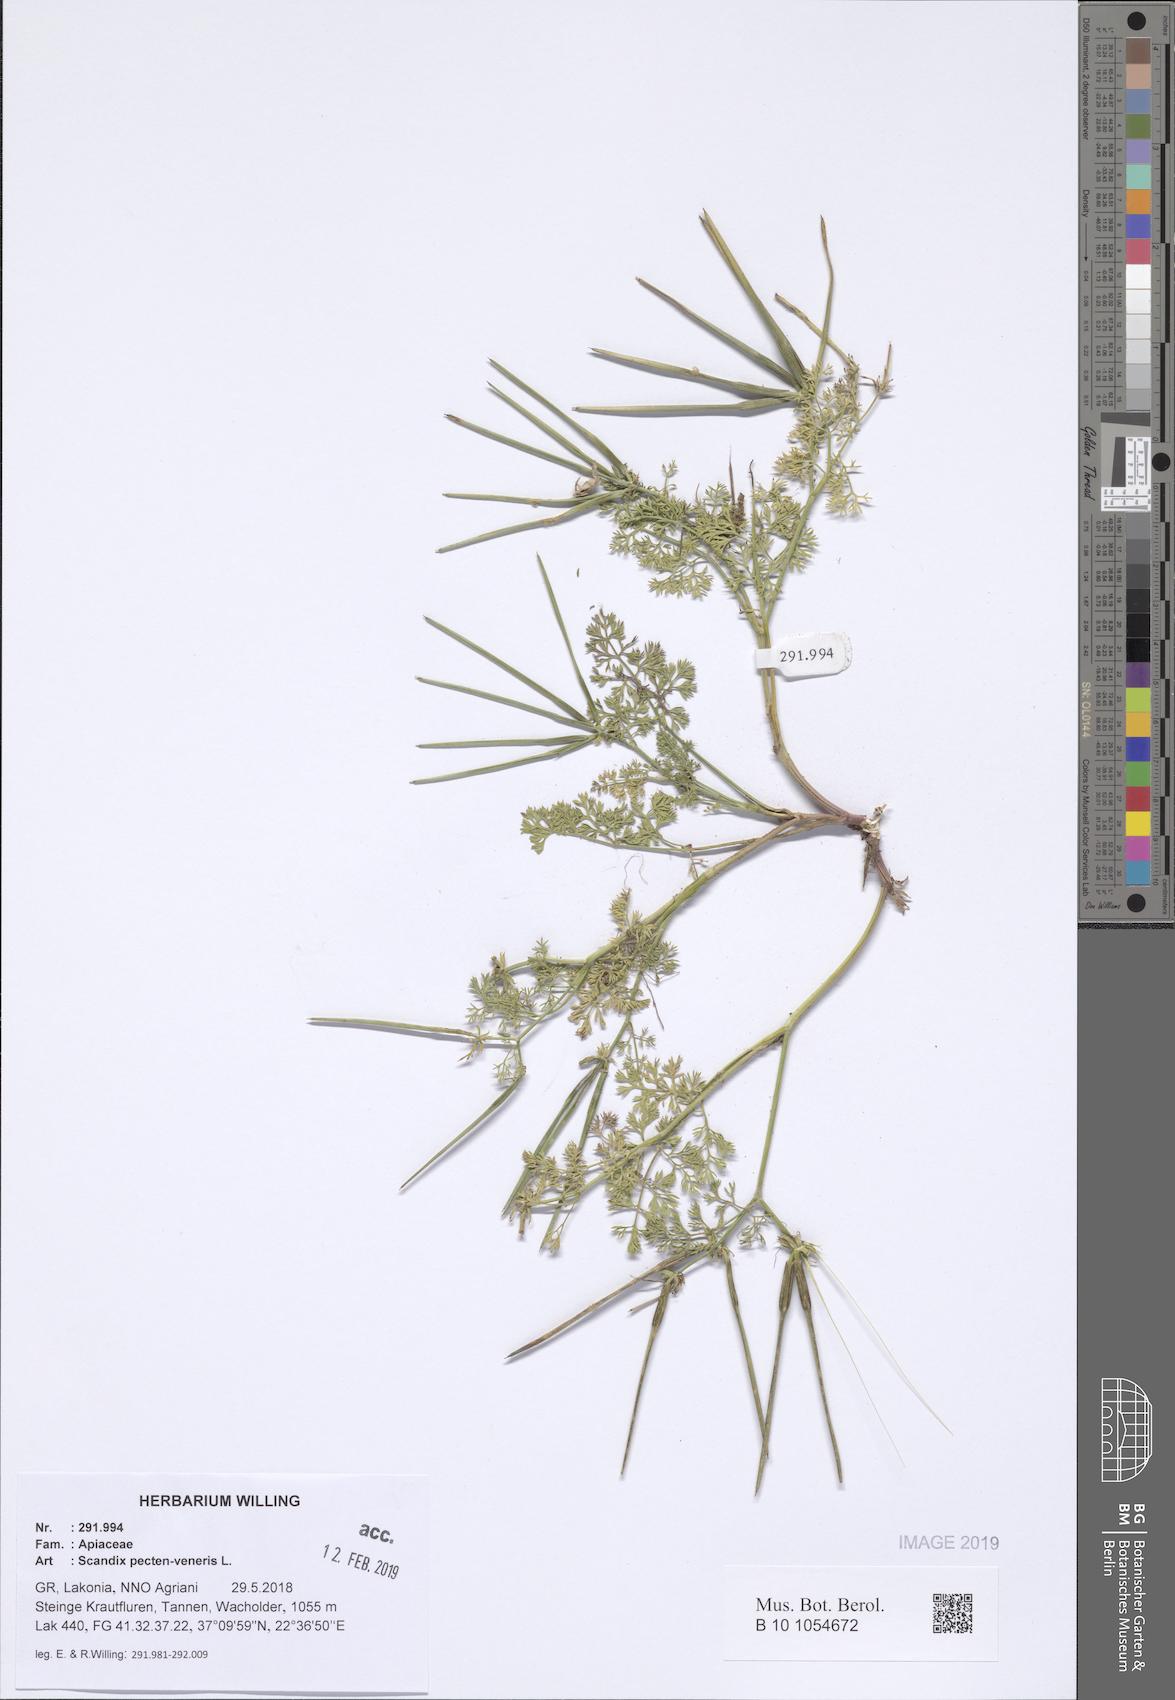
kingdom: Plantae
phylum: Tracheophyta
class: Magnoliopsida
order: Apiales
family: Apiaceae
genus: Scandix
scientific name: Scandix pecten-veneris
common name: Shepherd's-needle
